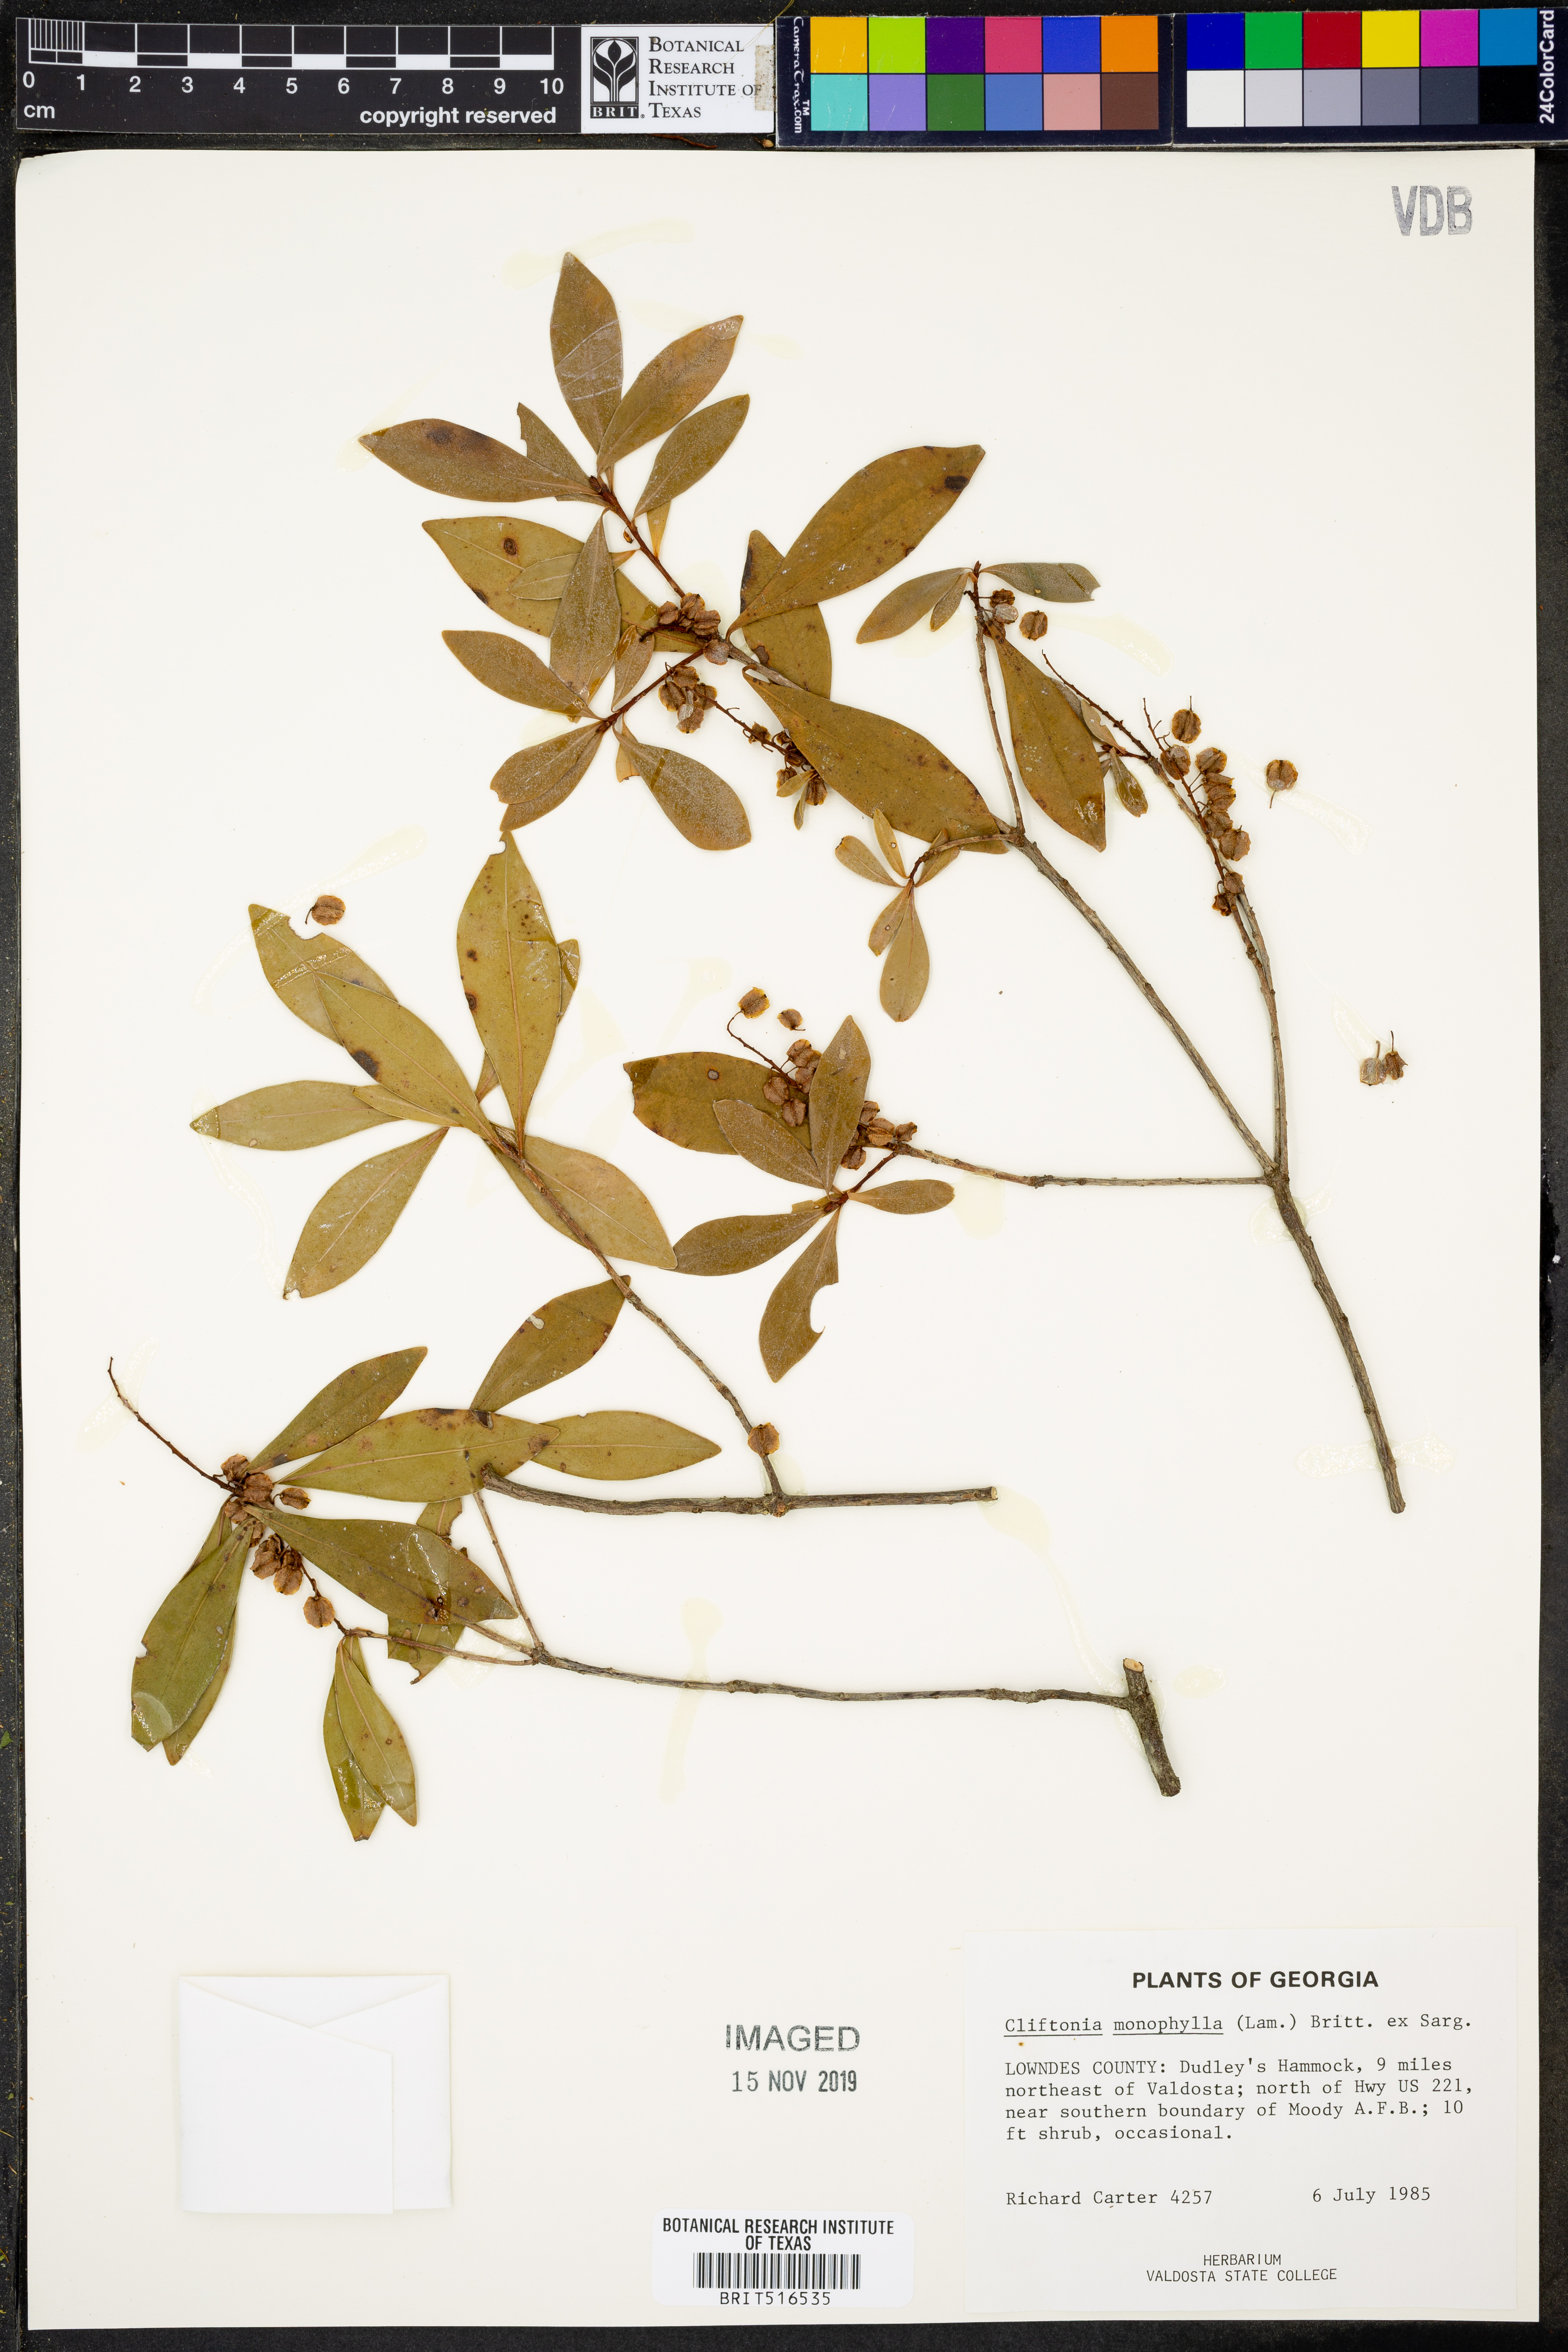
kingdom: Plantae
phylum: Tracheophyta
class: Magnoliopsida
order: Ericales
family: Cyrillaceae
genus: Cliftonia
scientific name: Cliftonia monophylla
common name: Titi
